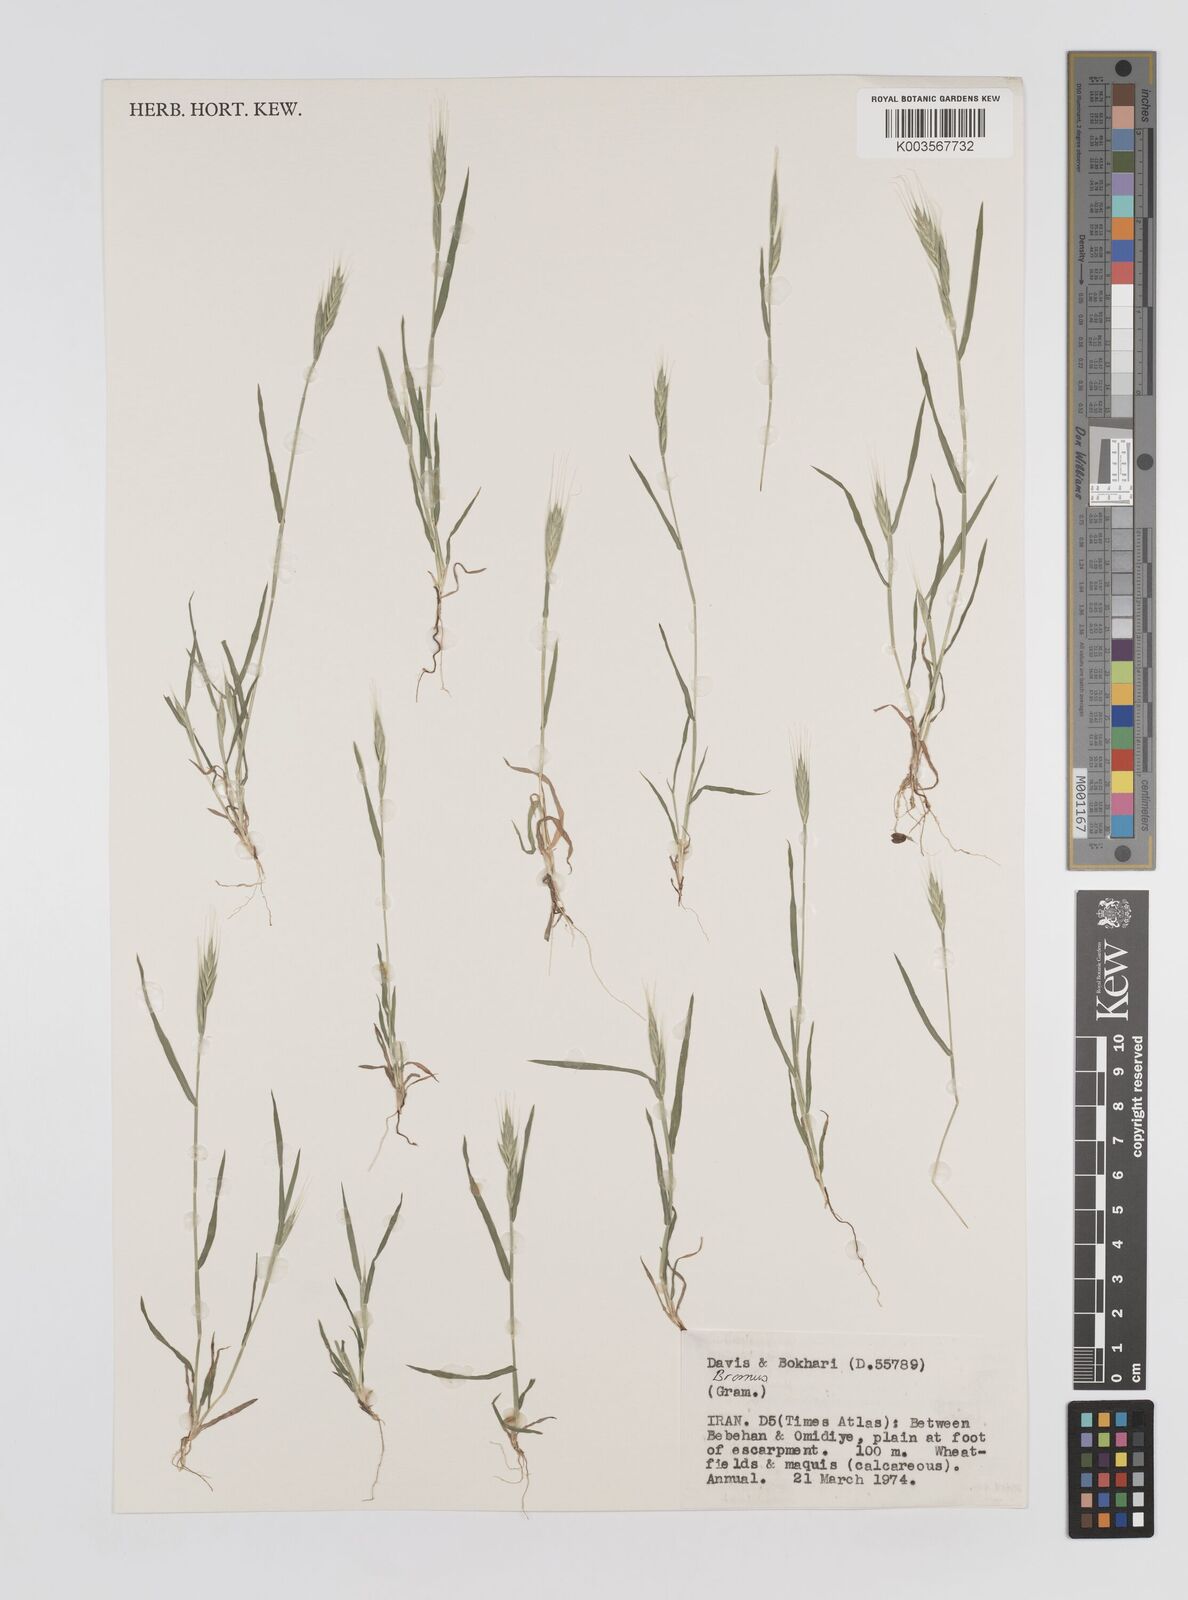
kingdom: Plantae
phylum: Tracheophyta
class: Liliopsida
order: Poales
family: Poaceae
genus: Bromus
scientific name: Bromus
